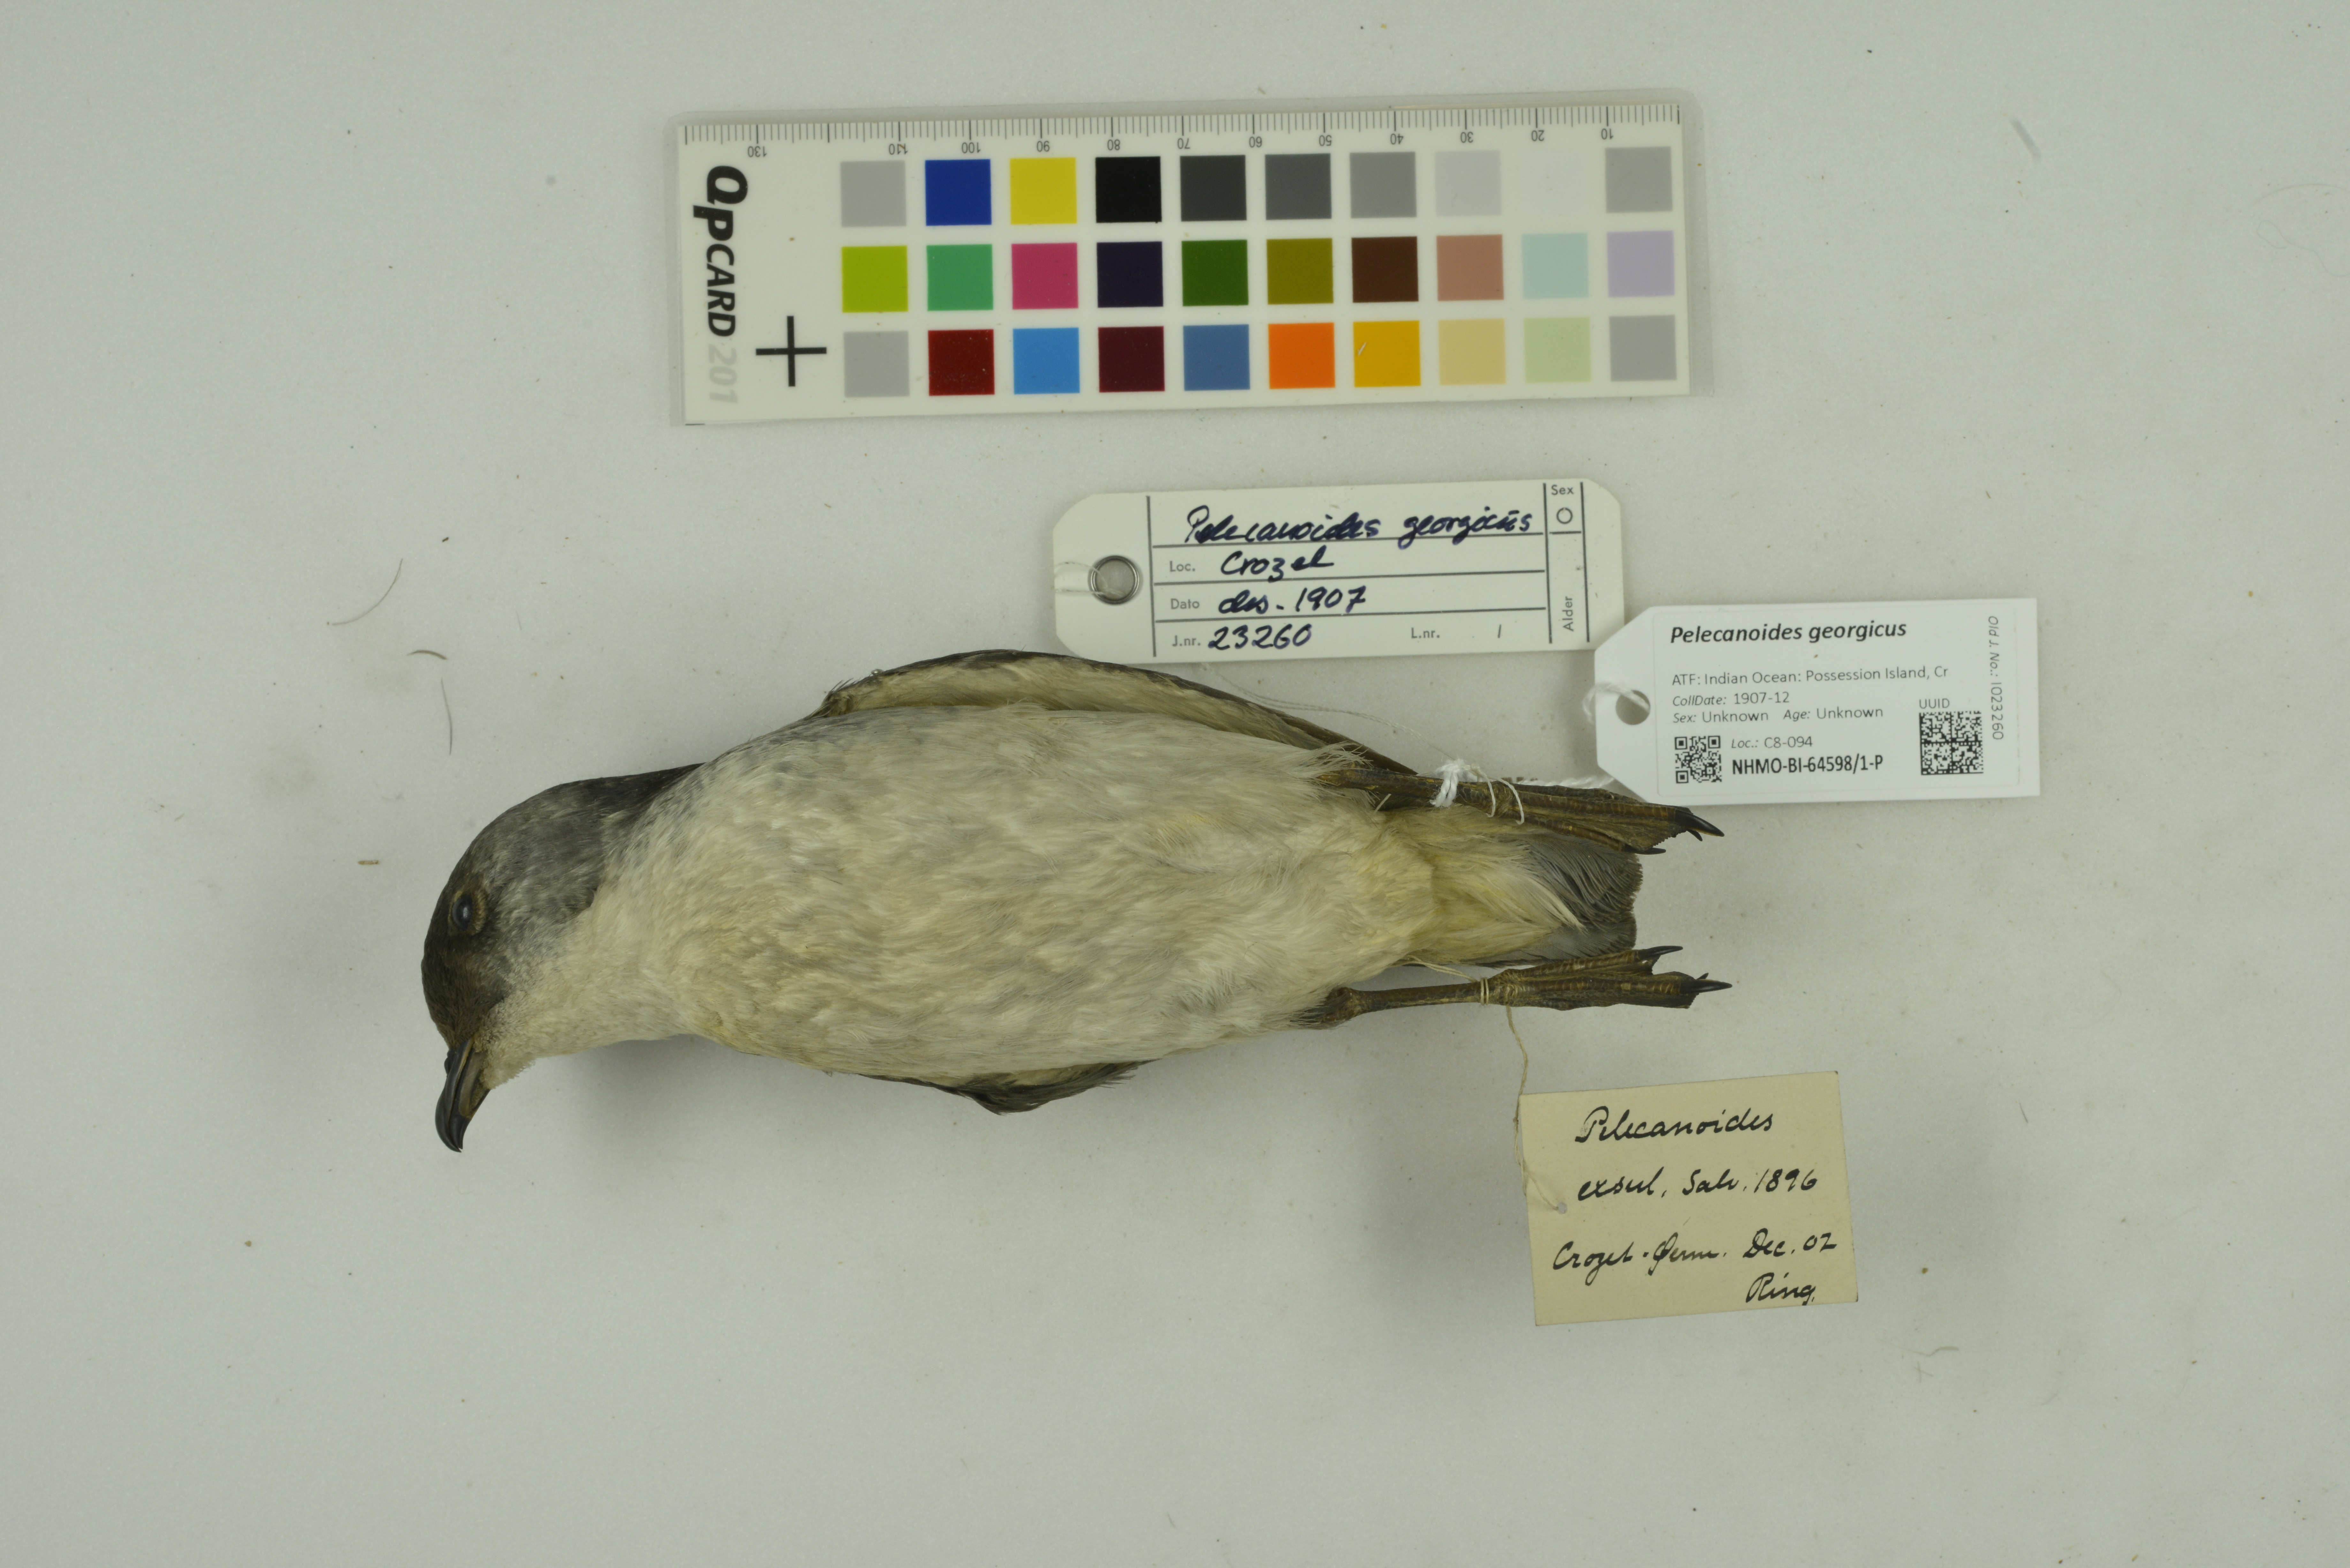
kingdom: Animalia
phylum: Chordata
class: Aves
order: Procellariiformes
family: Pelecanoididae
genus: Pelecanoides
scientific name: Pelecanoides georgicus
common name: South georgia diving-petrel
